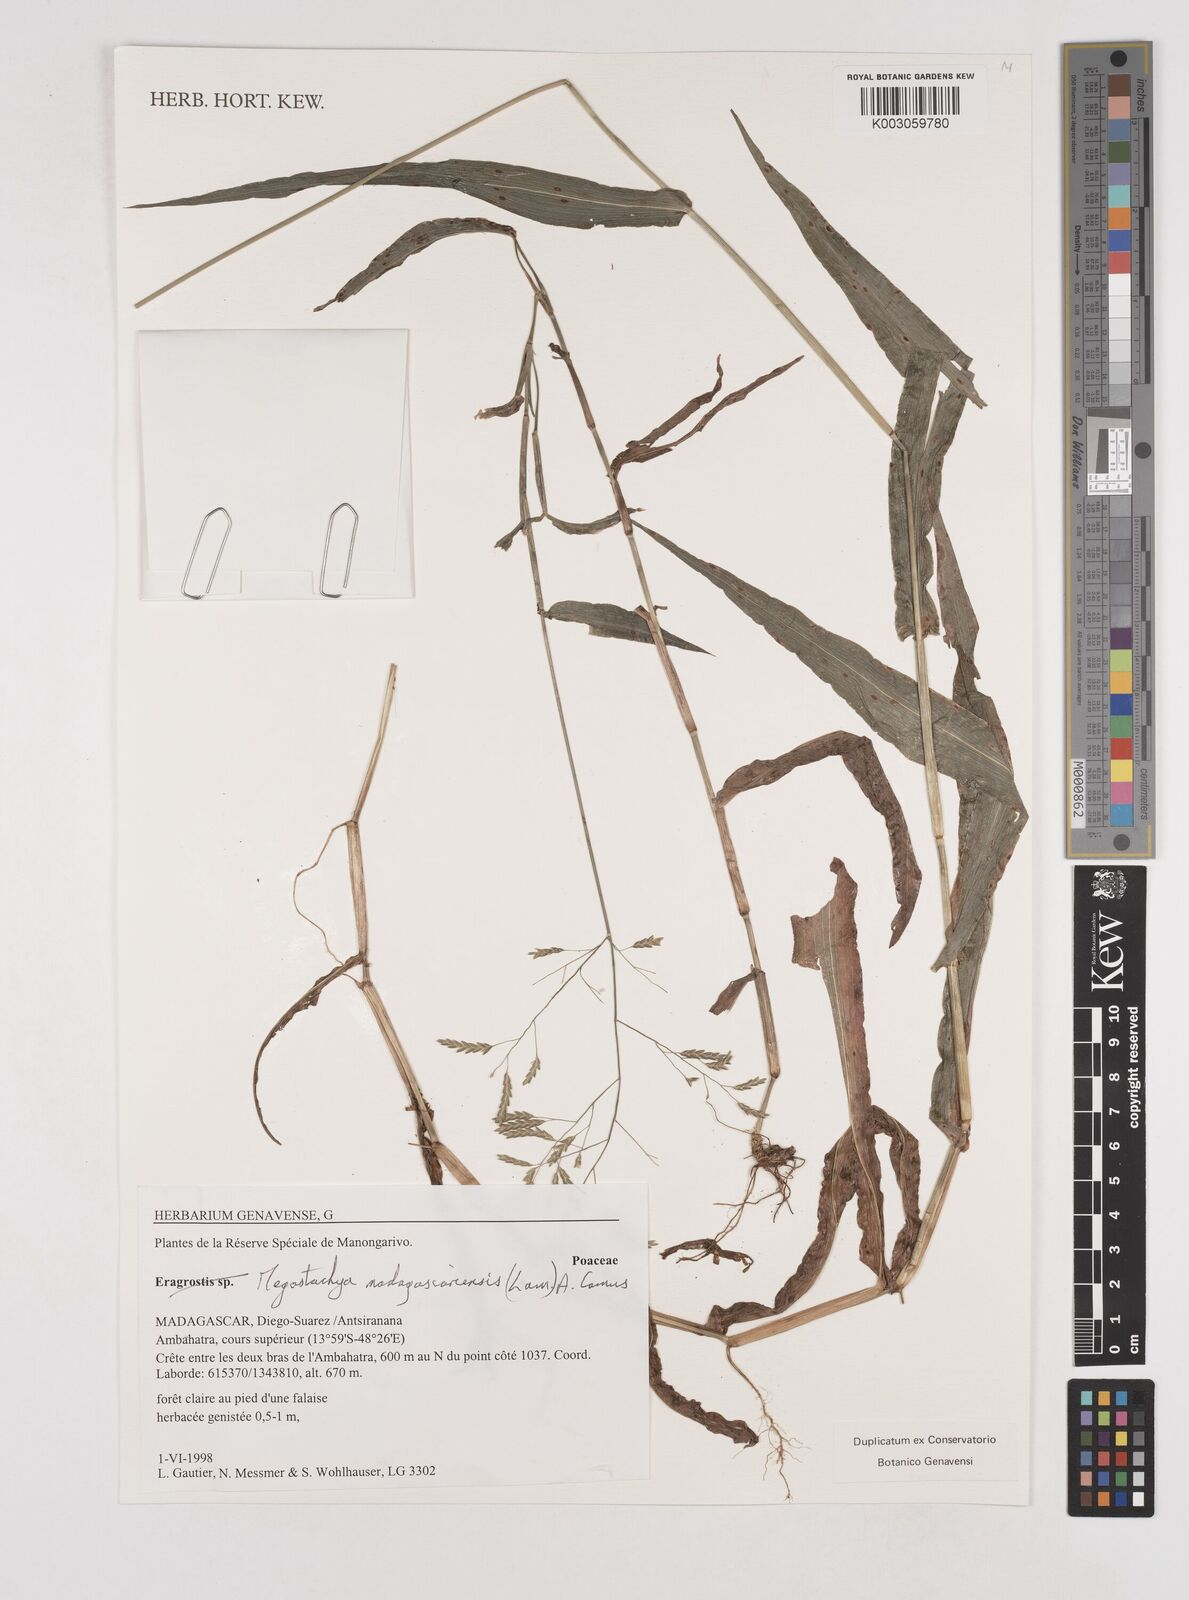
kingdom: Plantae
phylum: Tracheophyta
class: Liliopsida
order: Poales
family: Poaceae
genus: Megastachya
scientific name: Megastachya madagascariensis
